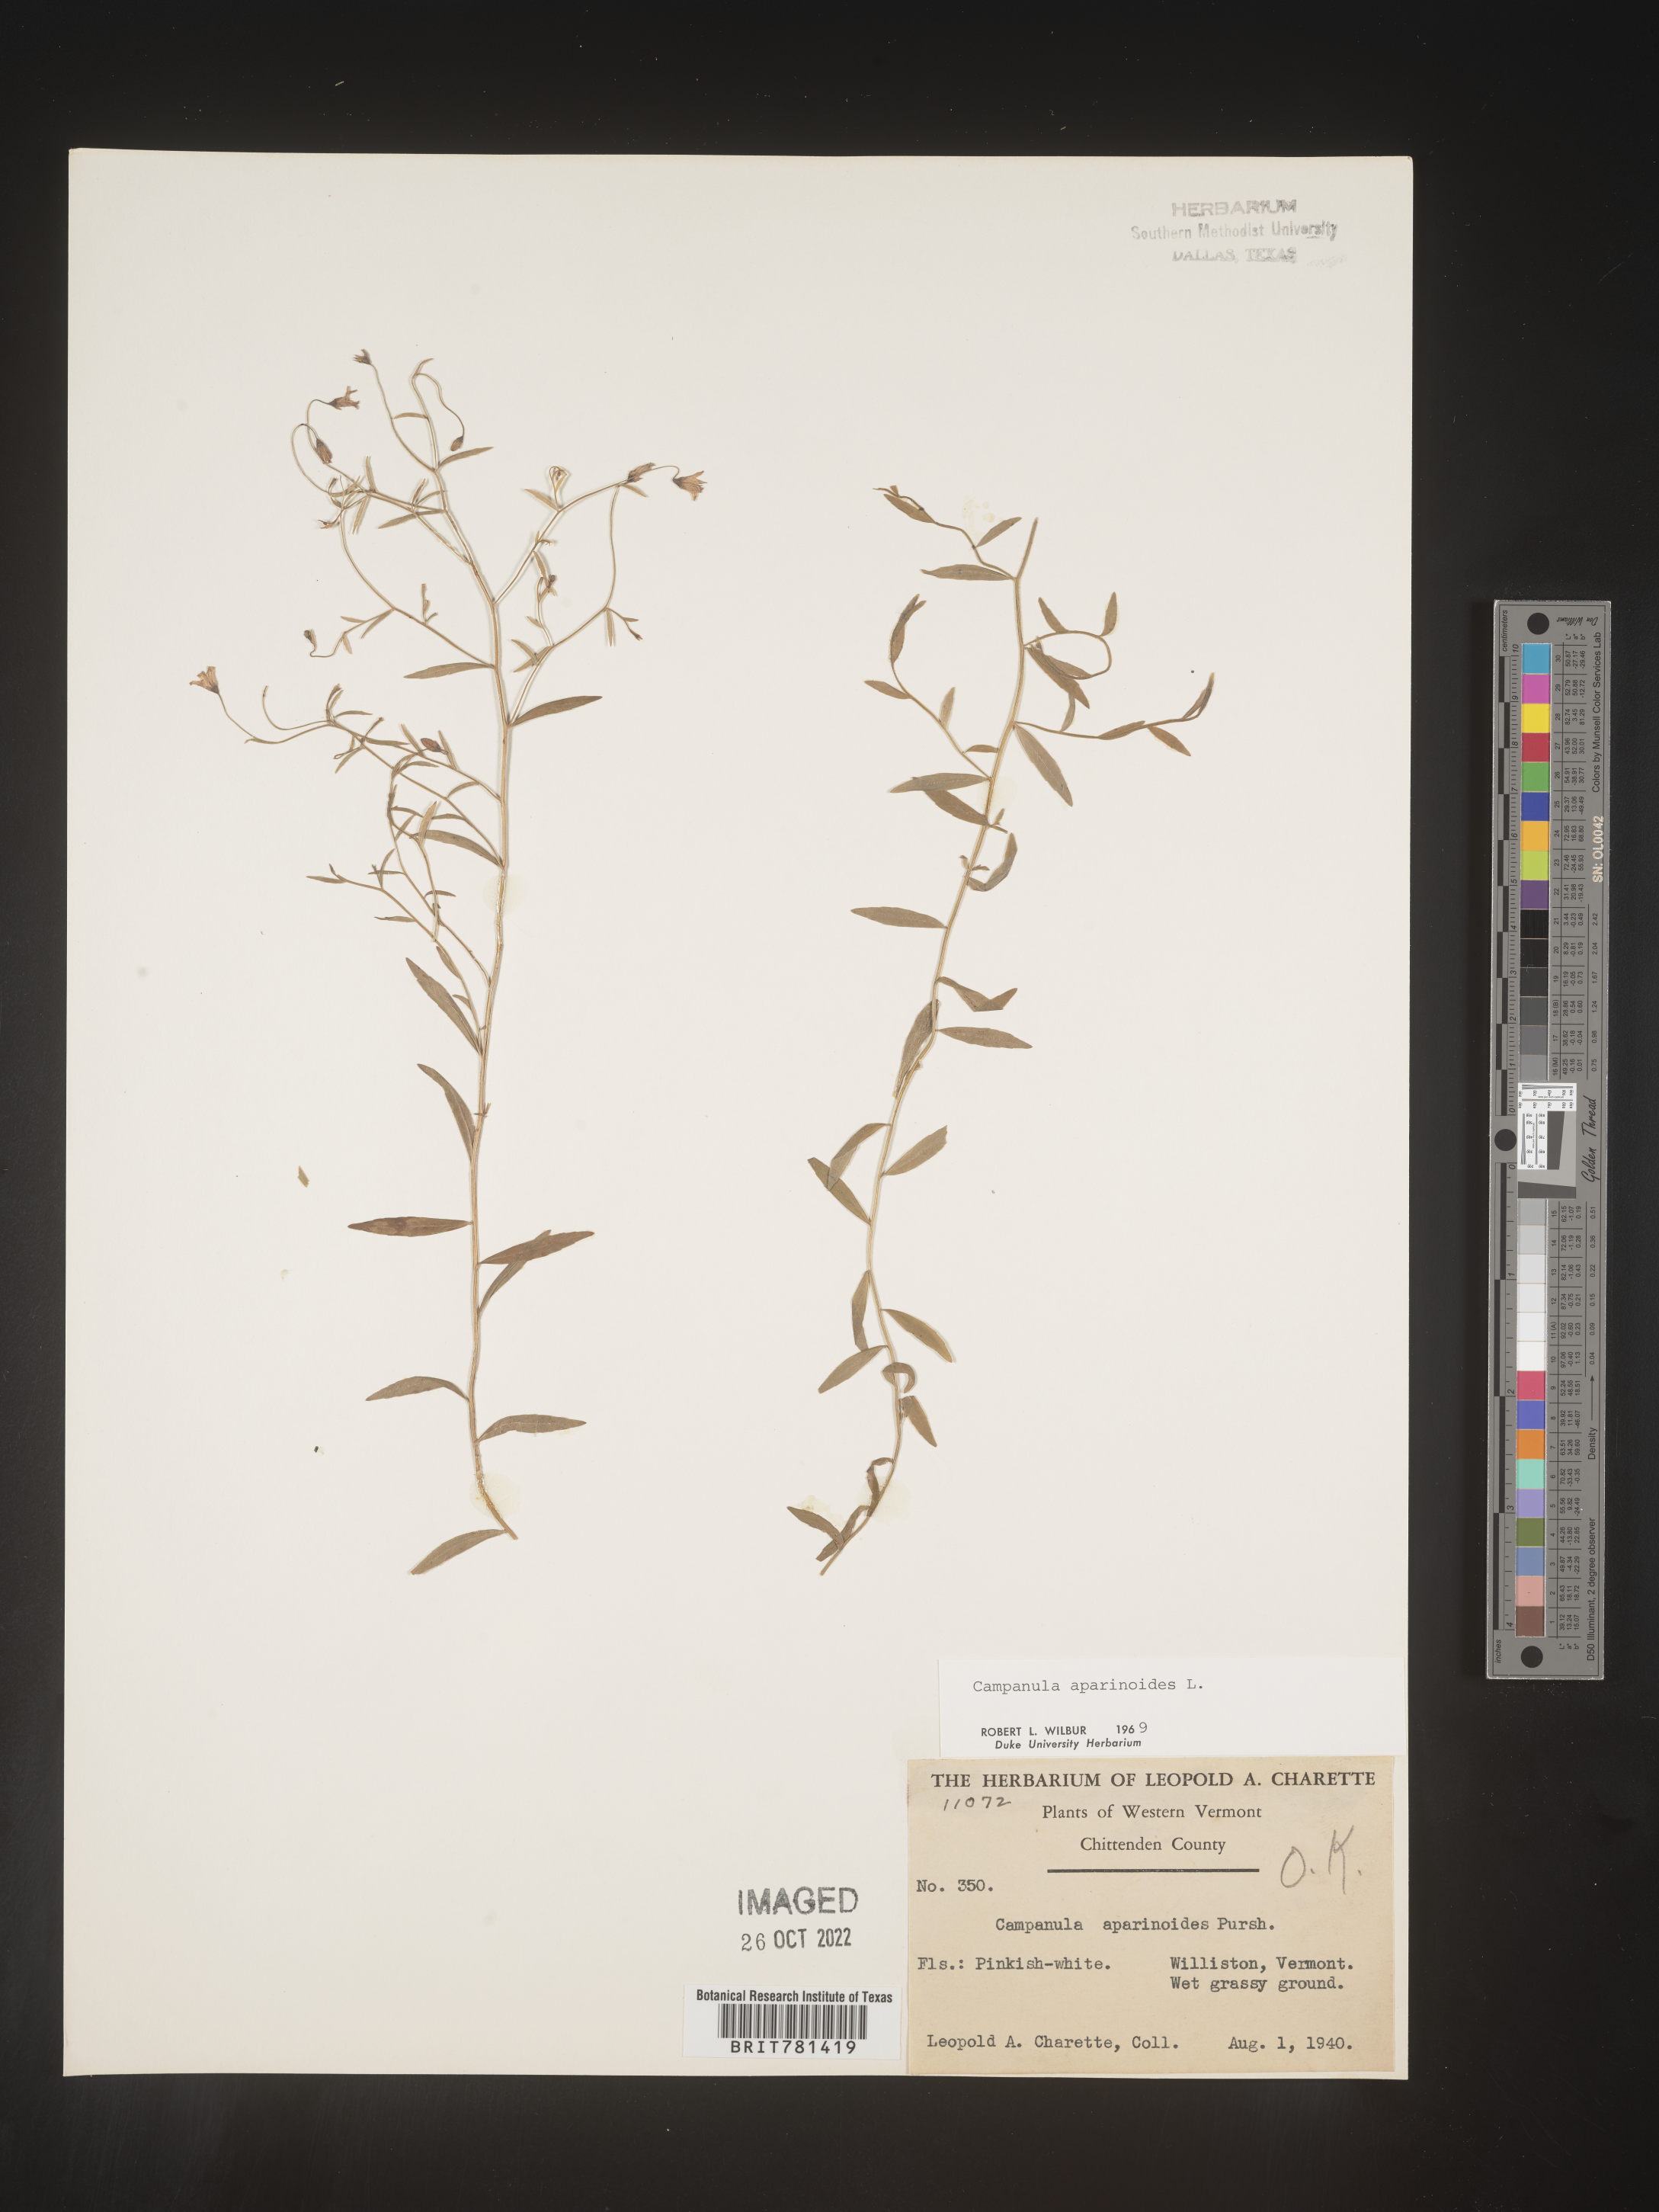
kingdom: Plantae
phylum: Tracheophyta
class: Magnoliopsida
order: Asterales
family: Campanulaceae
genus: Palustricodon
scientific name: Palustricodon aparinoides
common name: Bedstraw bellflower
